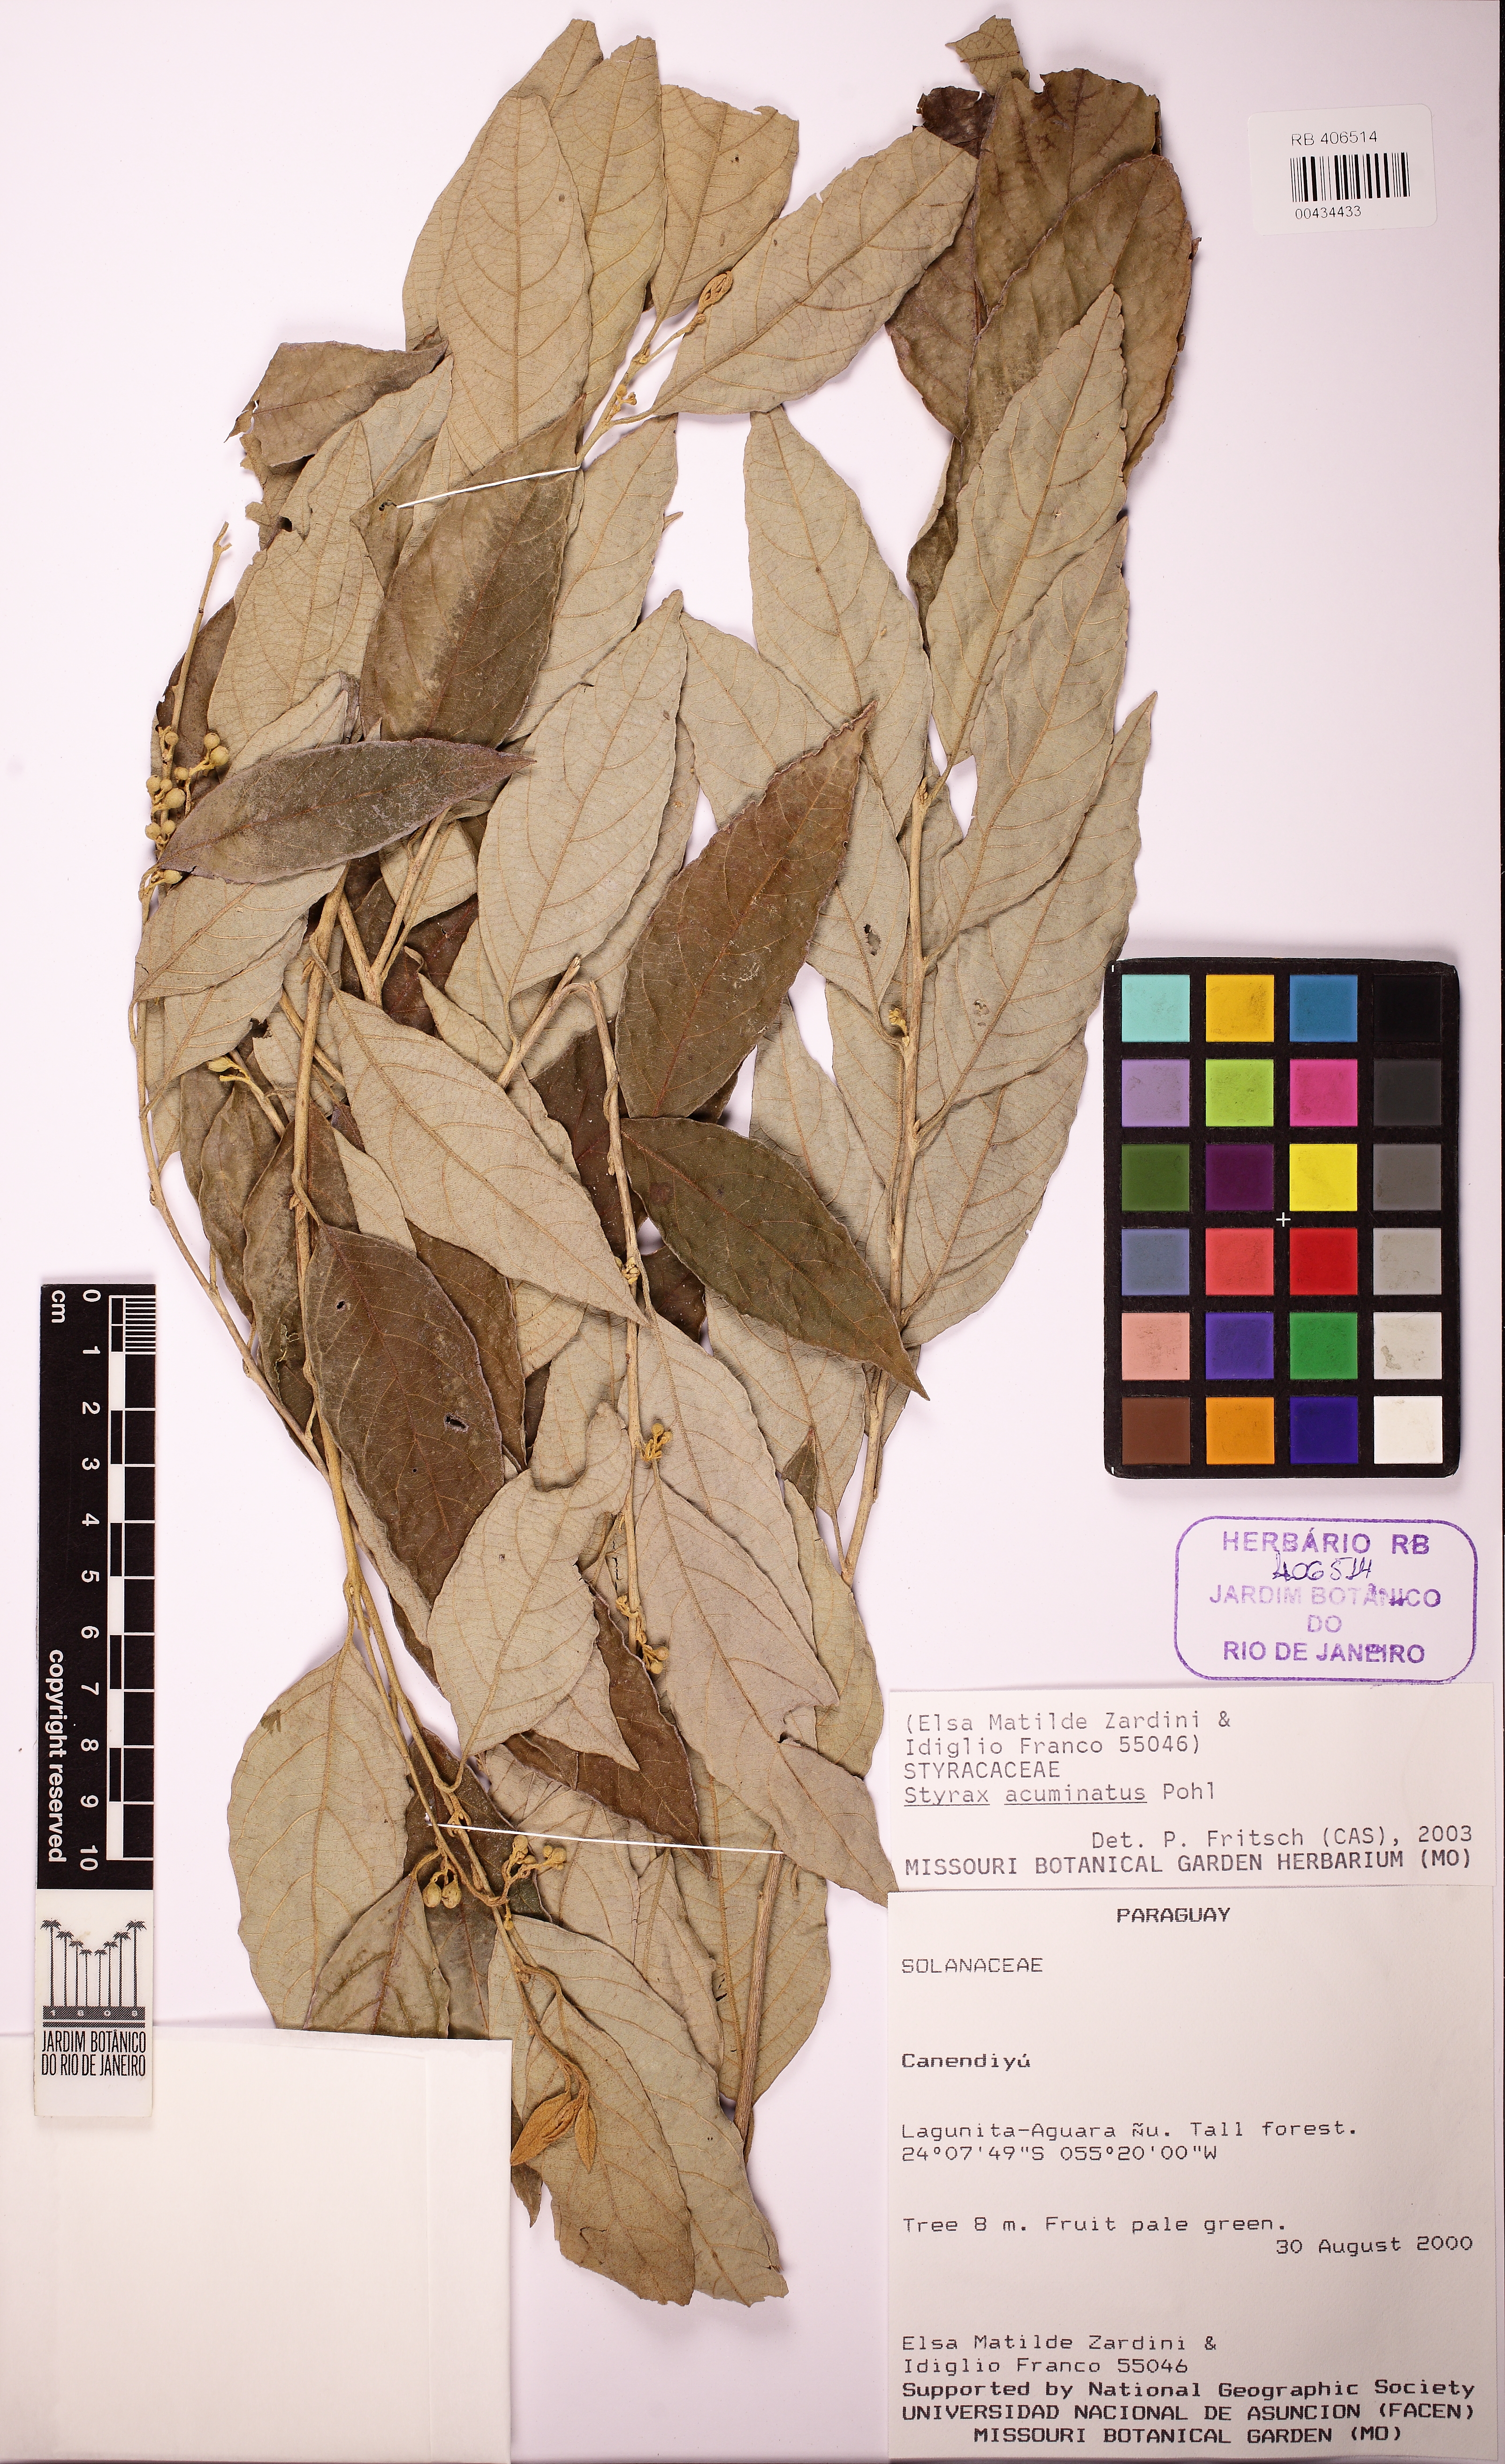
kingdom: Plantae
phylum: Tracheophyta
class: Magnoliopsida
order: Ericales
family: Styracaceae
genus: Styrax
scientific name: Styrax acuminatus
